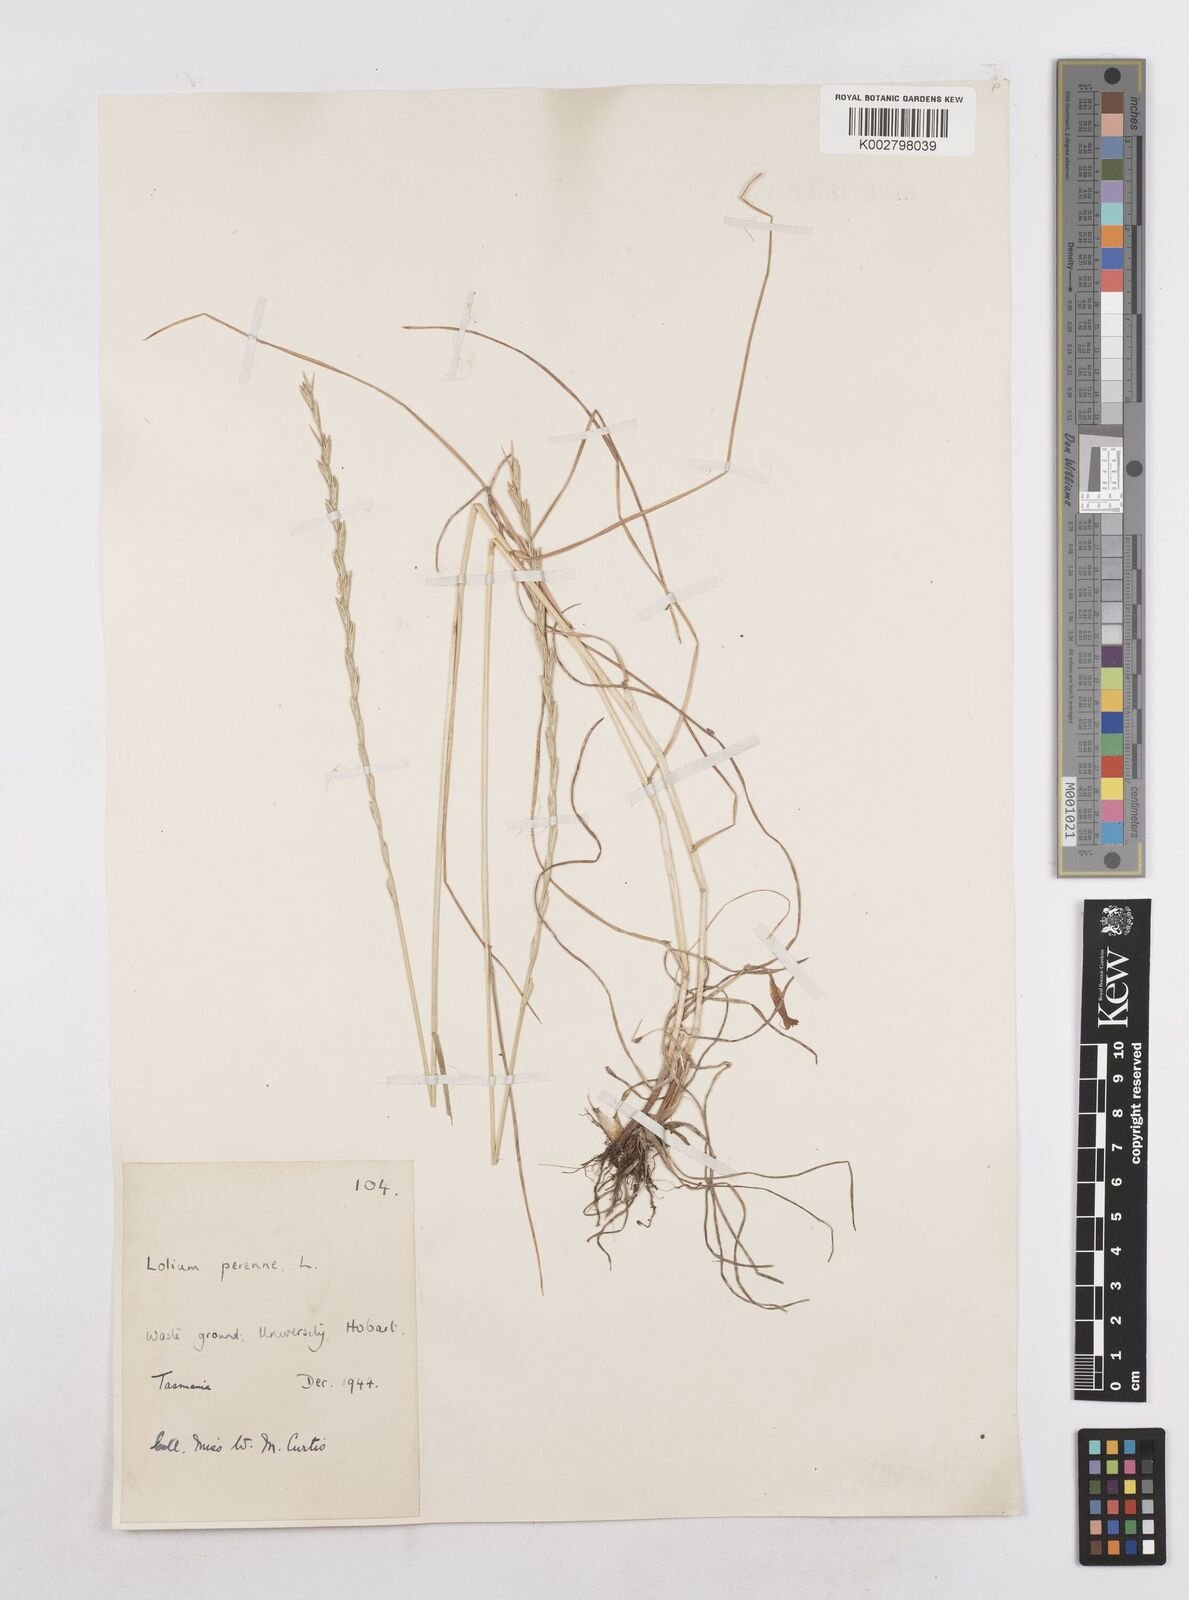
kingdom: Plantae
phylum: Tracheophyta
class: Liliopsida
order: Poales
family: Poaceae
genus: Lolium
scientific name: Lolium perenne
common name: Perennial ryegrass
